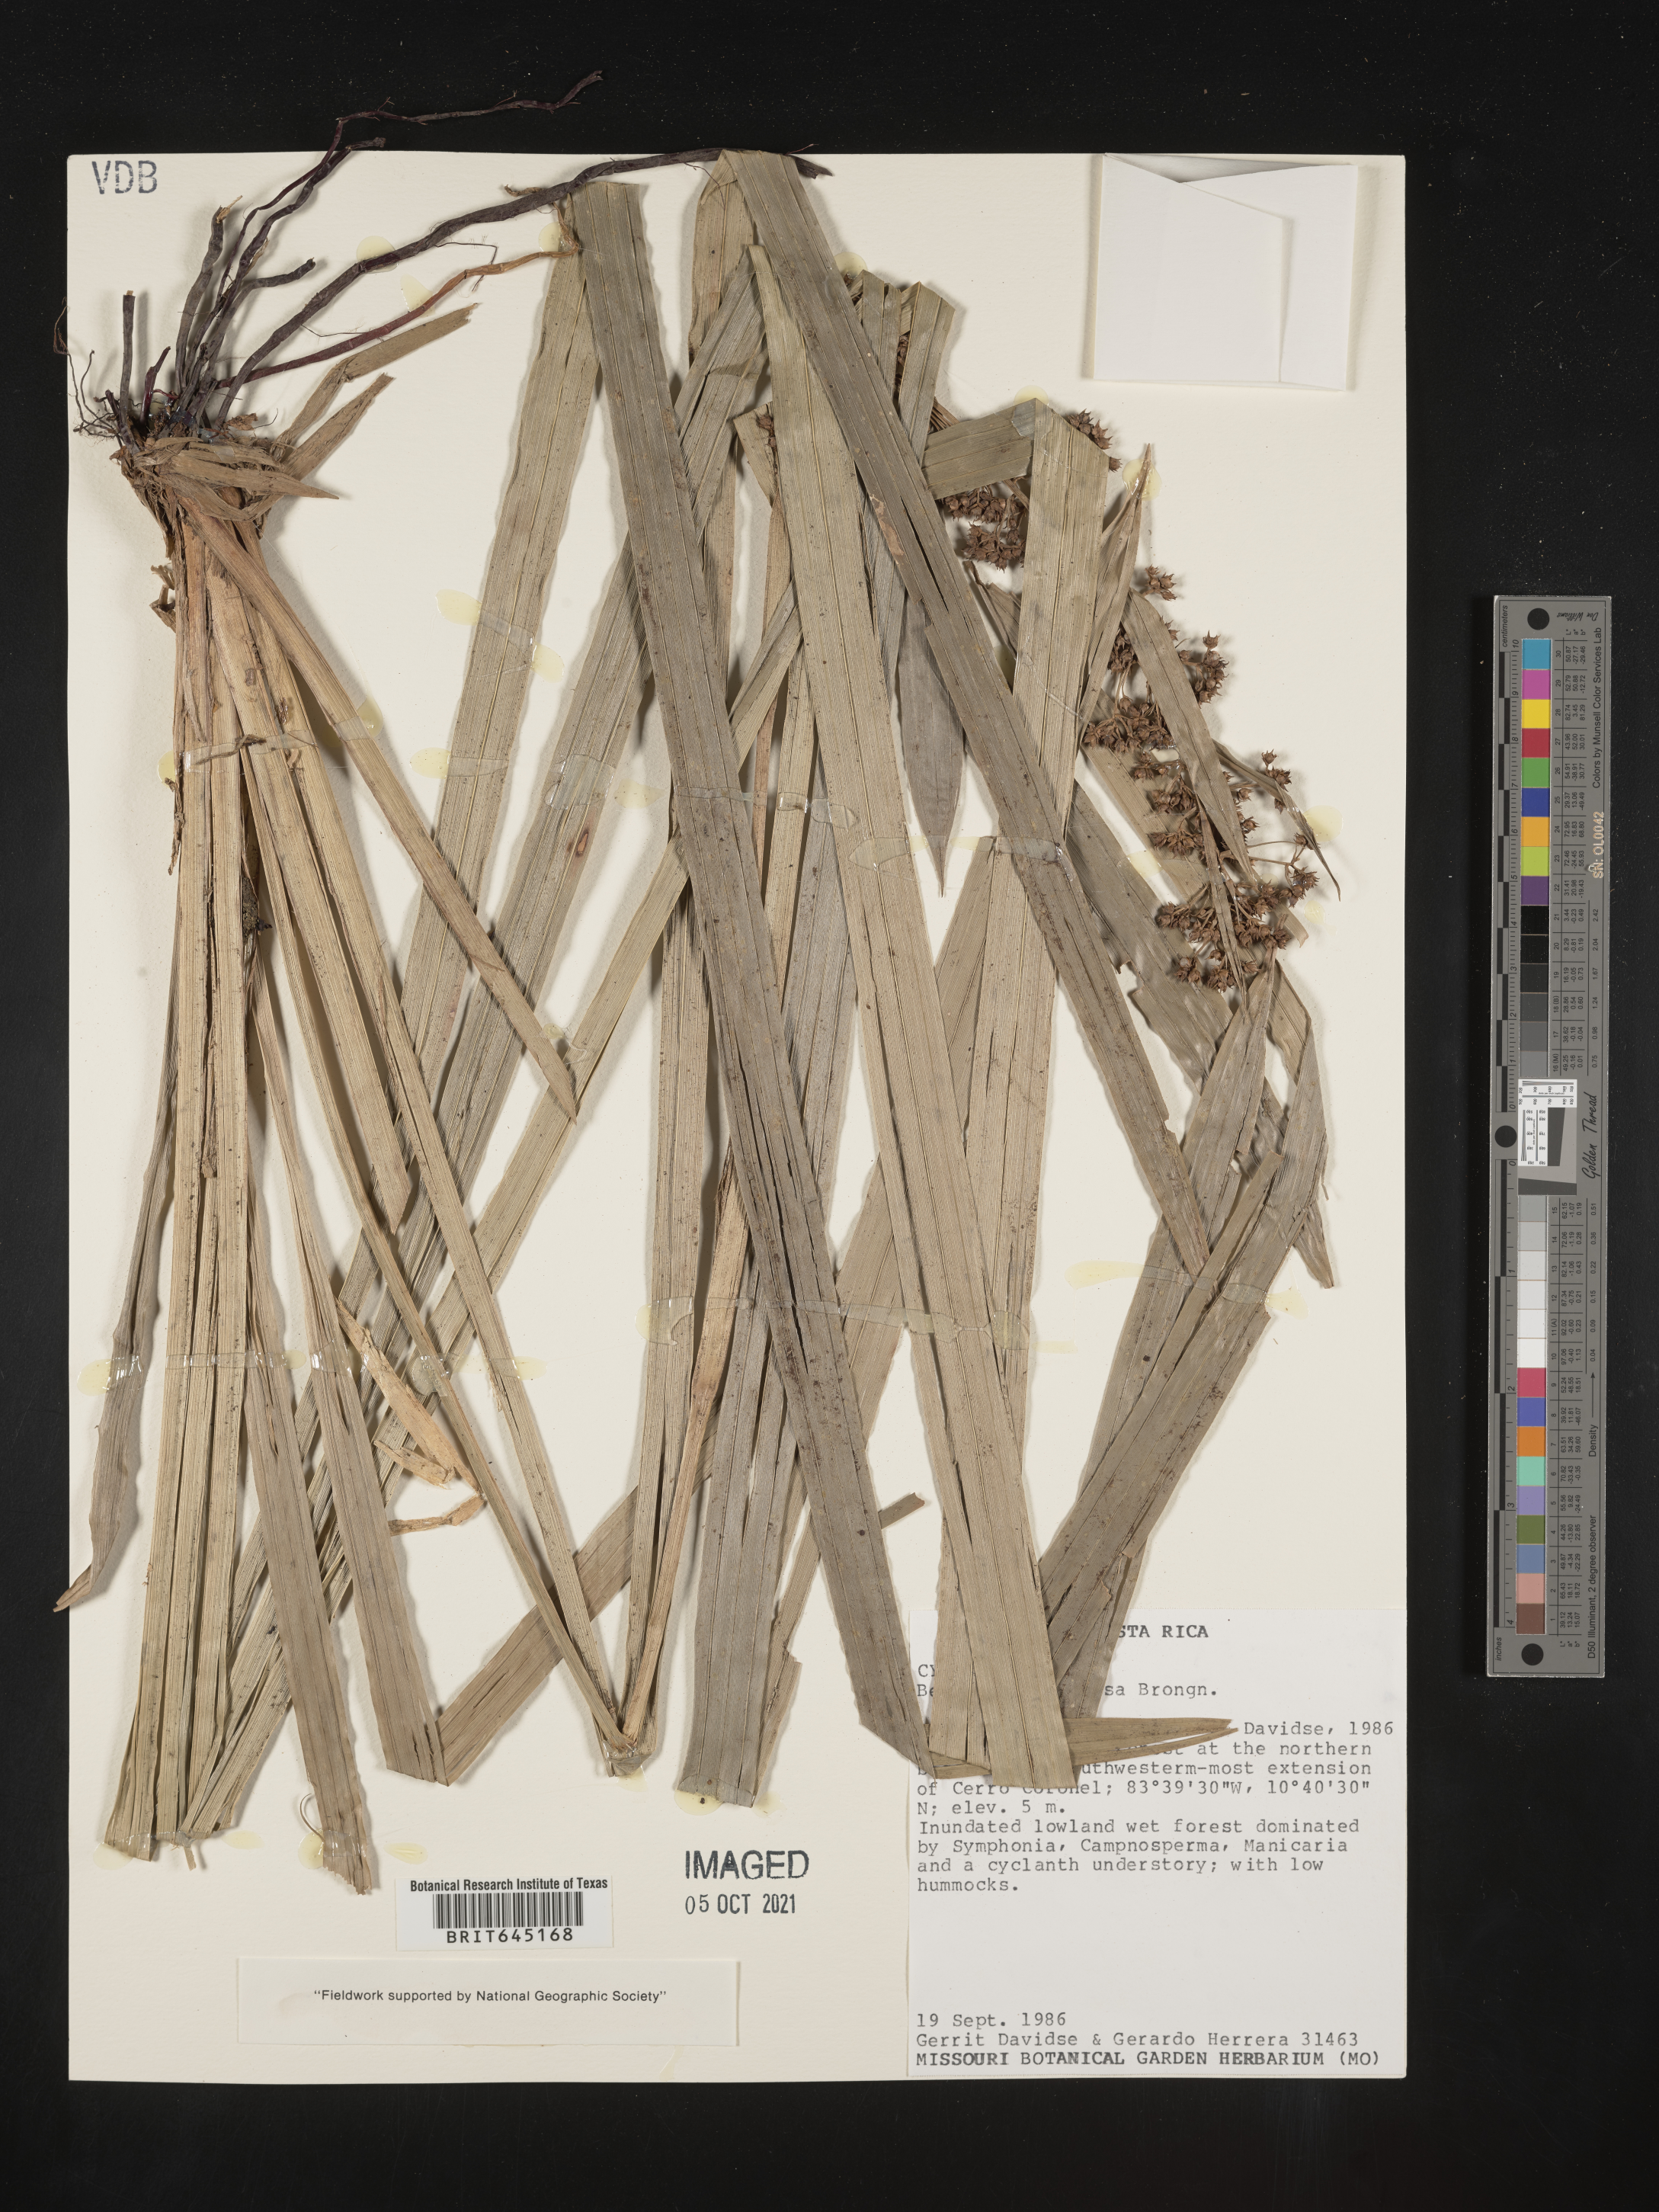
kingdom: Plantae
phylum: Tracheophyta
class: Liliopsida
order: Poales
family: Cyperaceae
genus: Becquerelia
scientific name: Becquerelia
